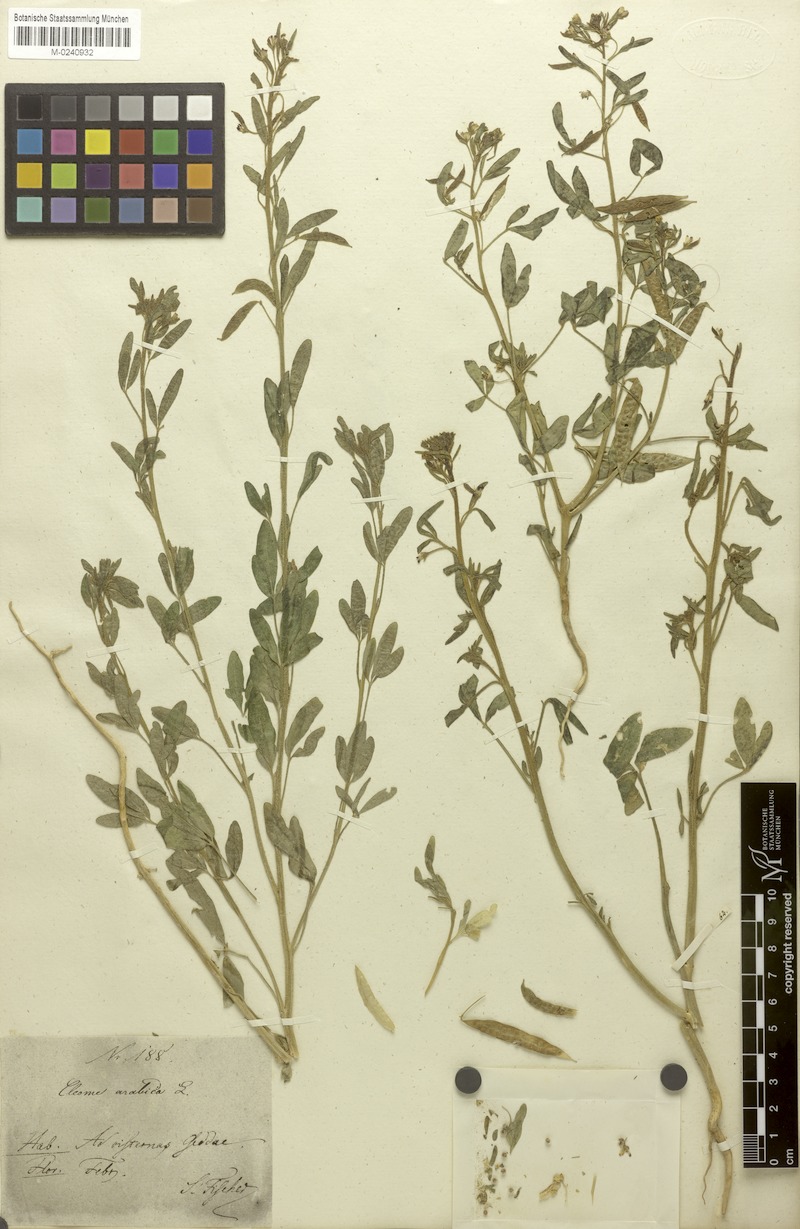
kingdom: Plantae
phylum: Tracheophyta
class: Magnoliopsida
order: Brassicales
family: Cleomaceae
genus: Cleome
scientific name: Cleome arabica
